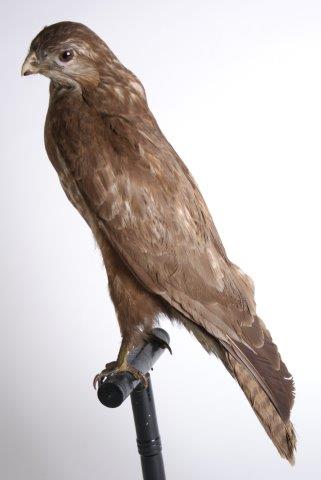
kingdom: Animalia
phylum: Chordata
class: Aves
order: Accipitriformes
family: Accipitridae
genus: Buteo
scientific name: Buteo buteo
